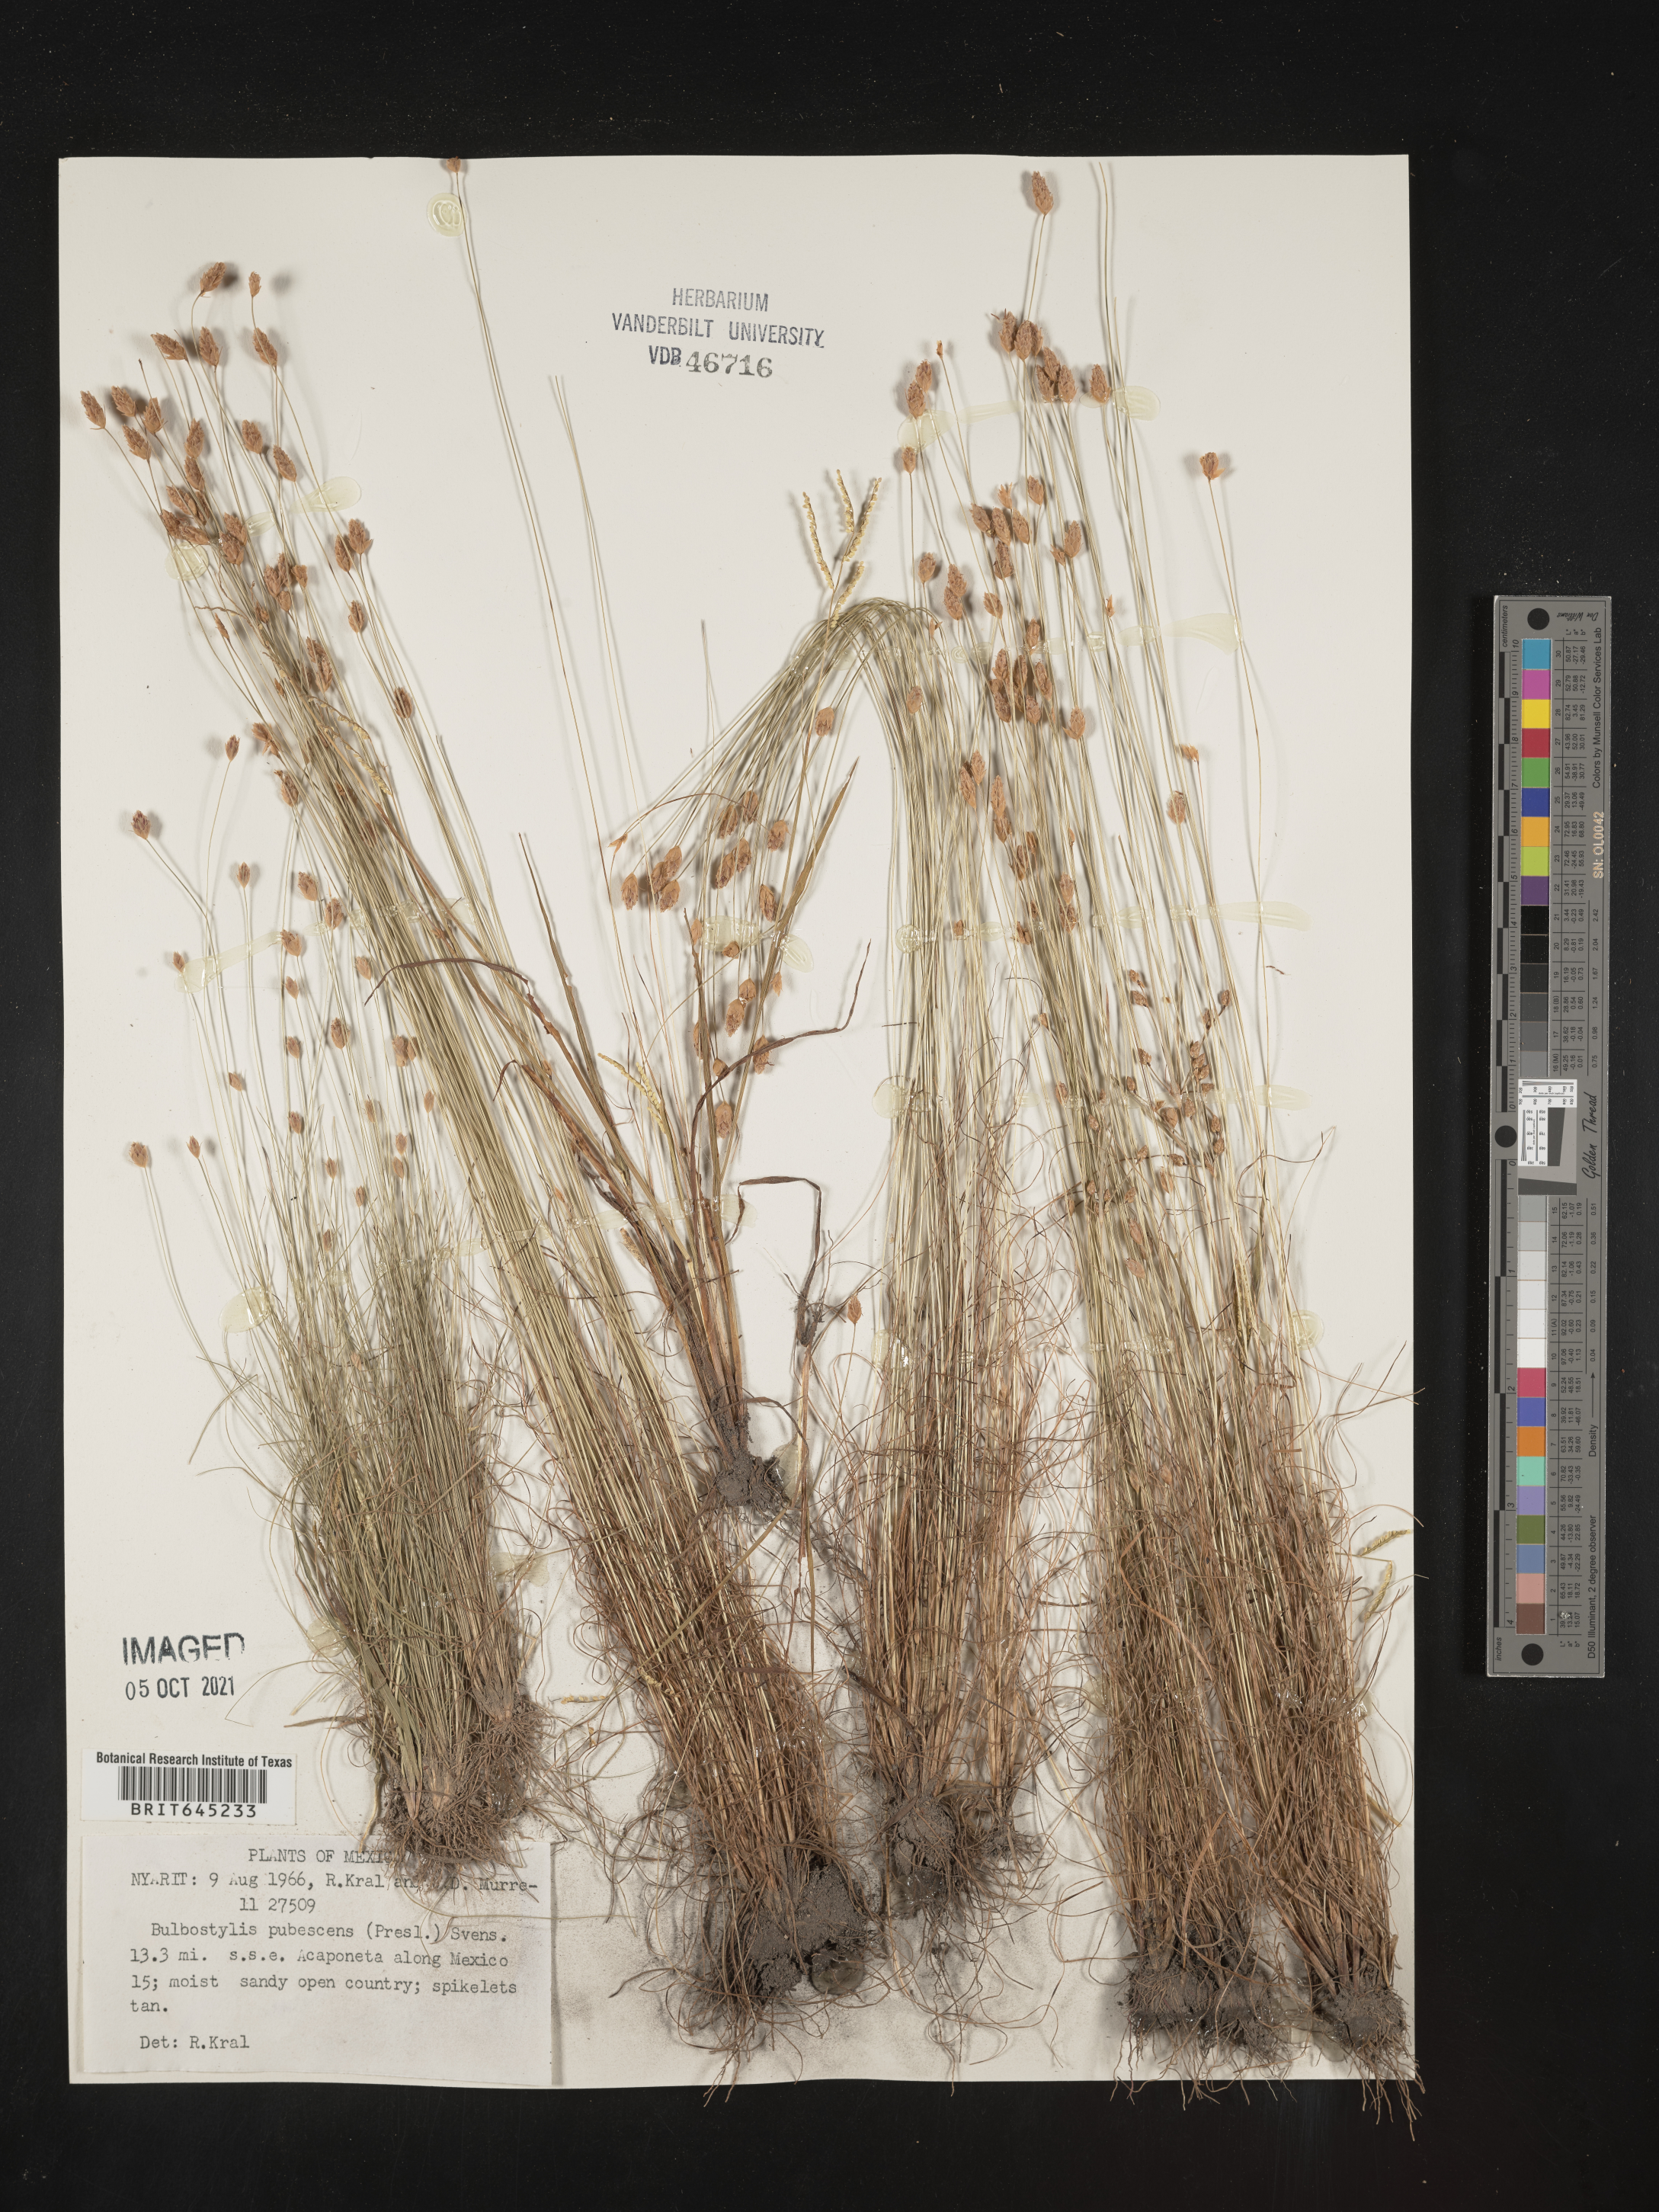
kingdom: Plantae
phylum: Tracheophyta
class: Liliopsida
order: Poales
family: Cyperaceae
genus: Bulbostylis
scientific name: Bulbostylis pubescens
